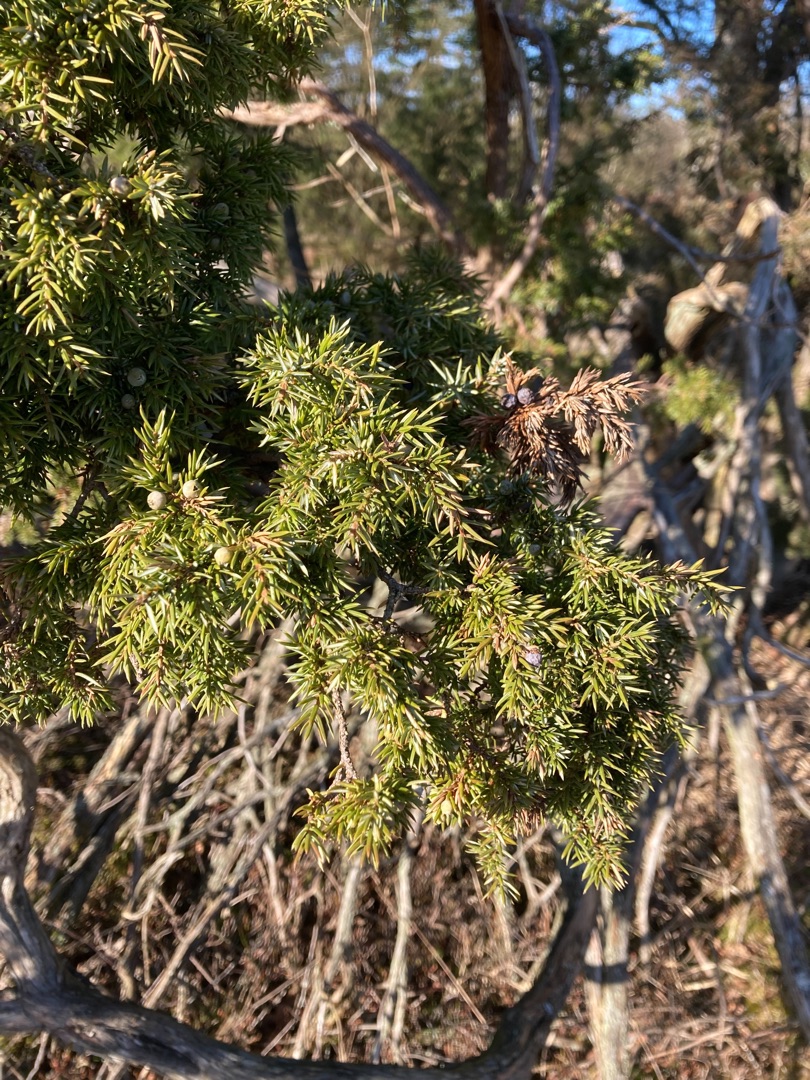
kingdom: Plantae
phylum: Tracheophyta
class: Pinopsida
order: Pinales
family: Cupressaceae
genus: Juniperus
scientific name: Juniperus communis
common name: Almindelig ene
